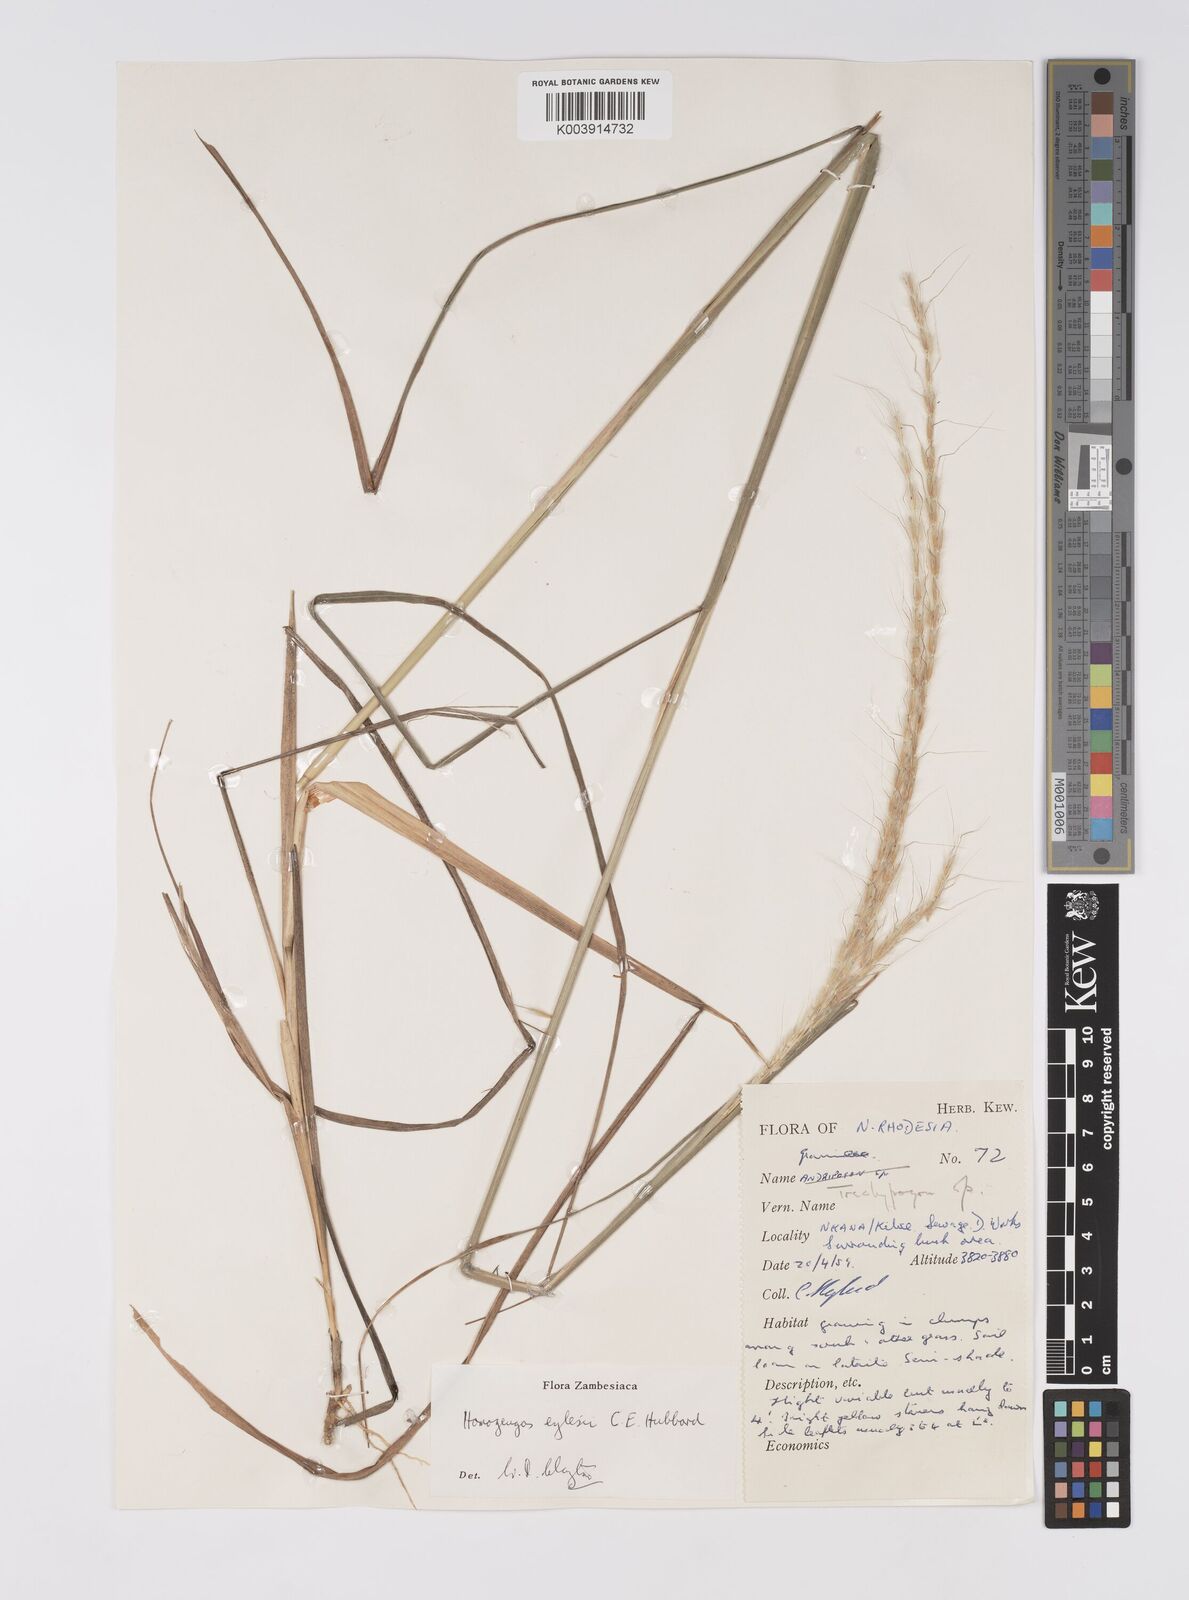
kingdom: Plantae
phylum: Tracheophyta
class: Liliopsida
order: Poales
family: Poaceae
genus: Homozeugos
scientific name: Homozeugos eylesii
